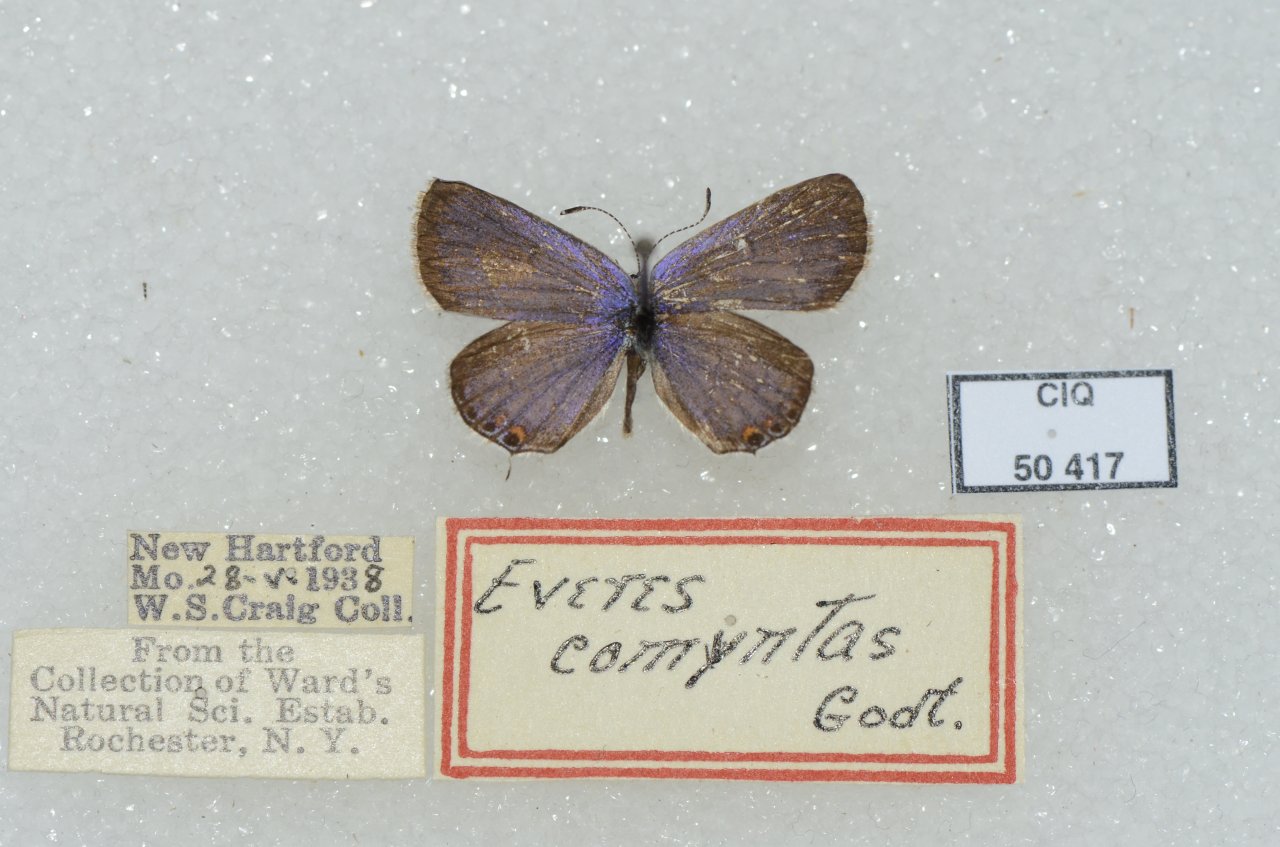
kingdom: Animalia
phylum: Arthropoda
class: Insecta
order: Lepidoptera
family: Lycaenidae
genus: Elkalyce
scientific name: Elkalyce comyntas
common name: Eastern Tailed-Blue
